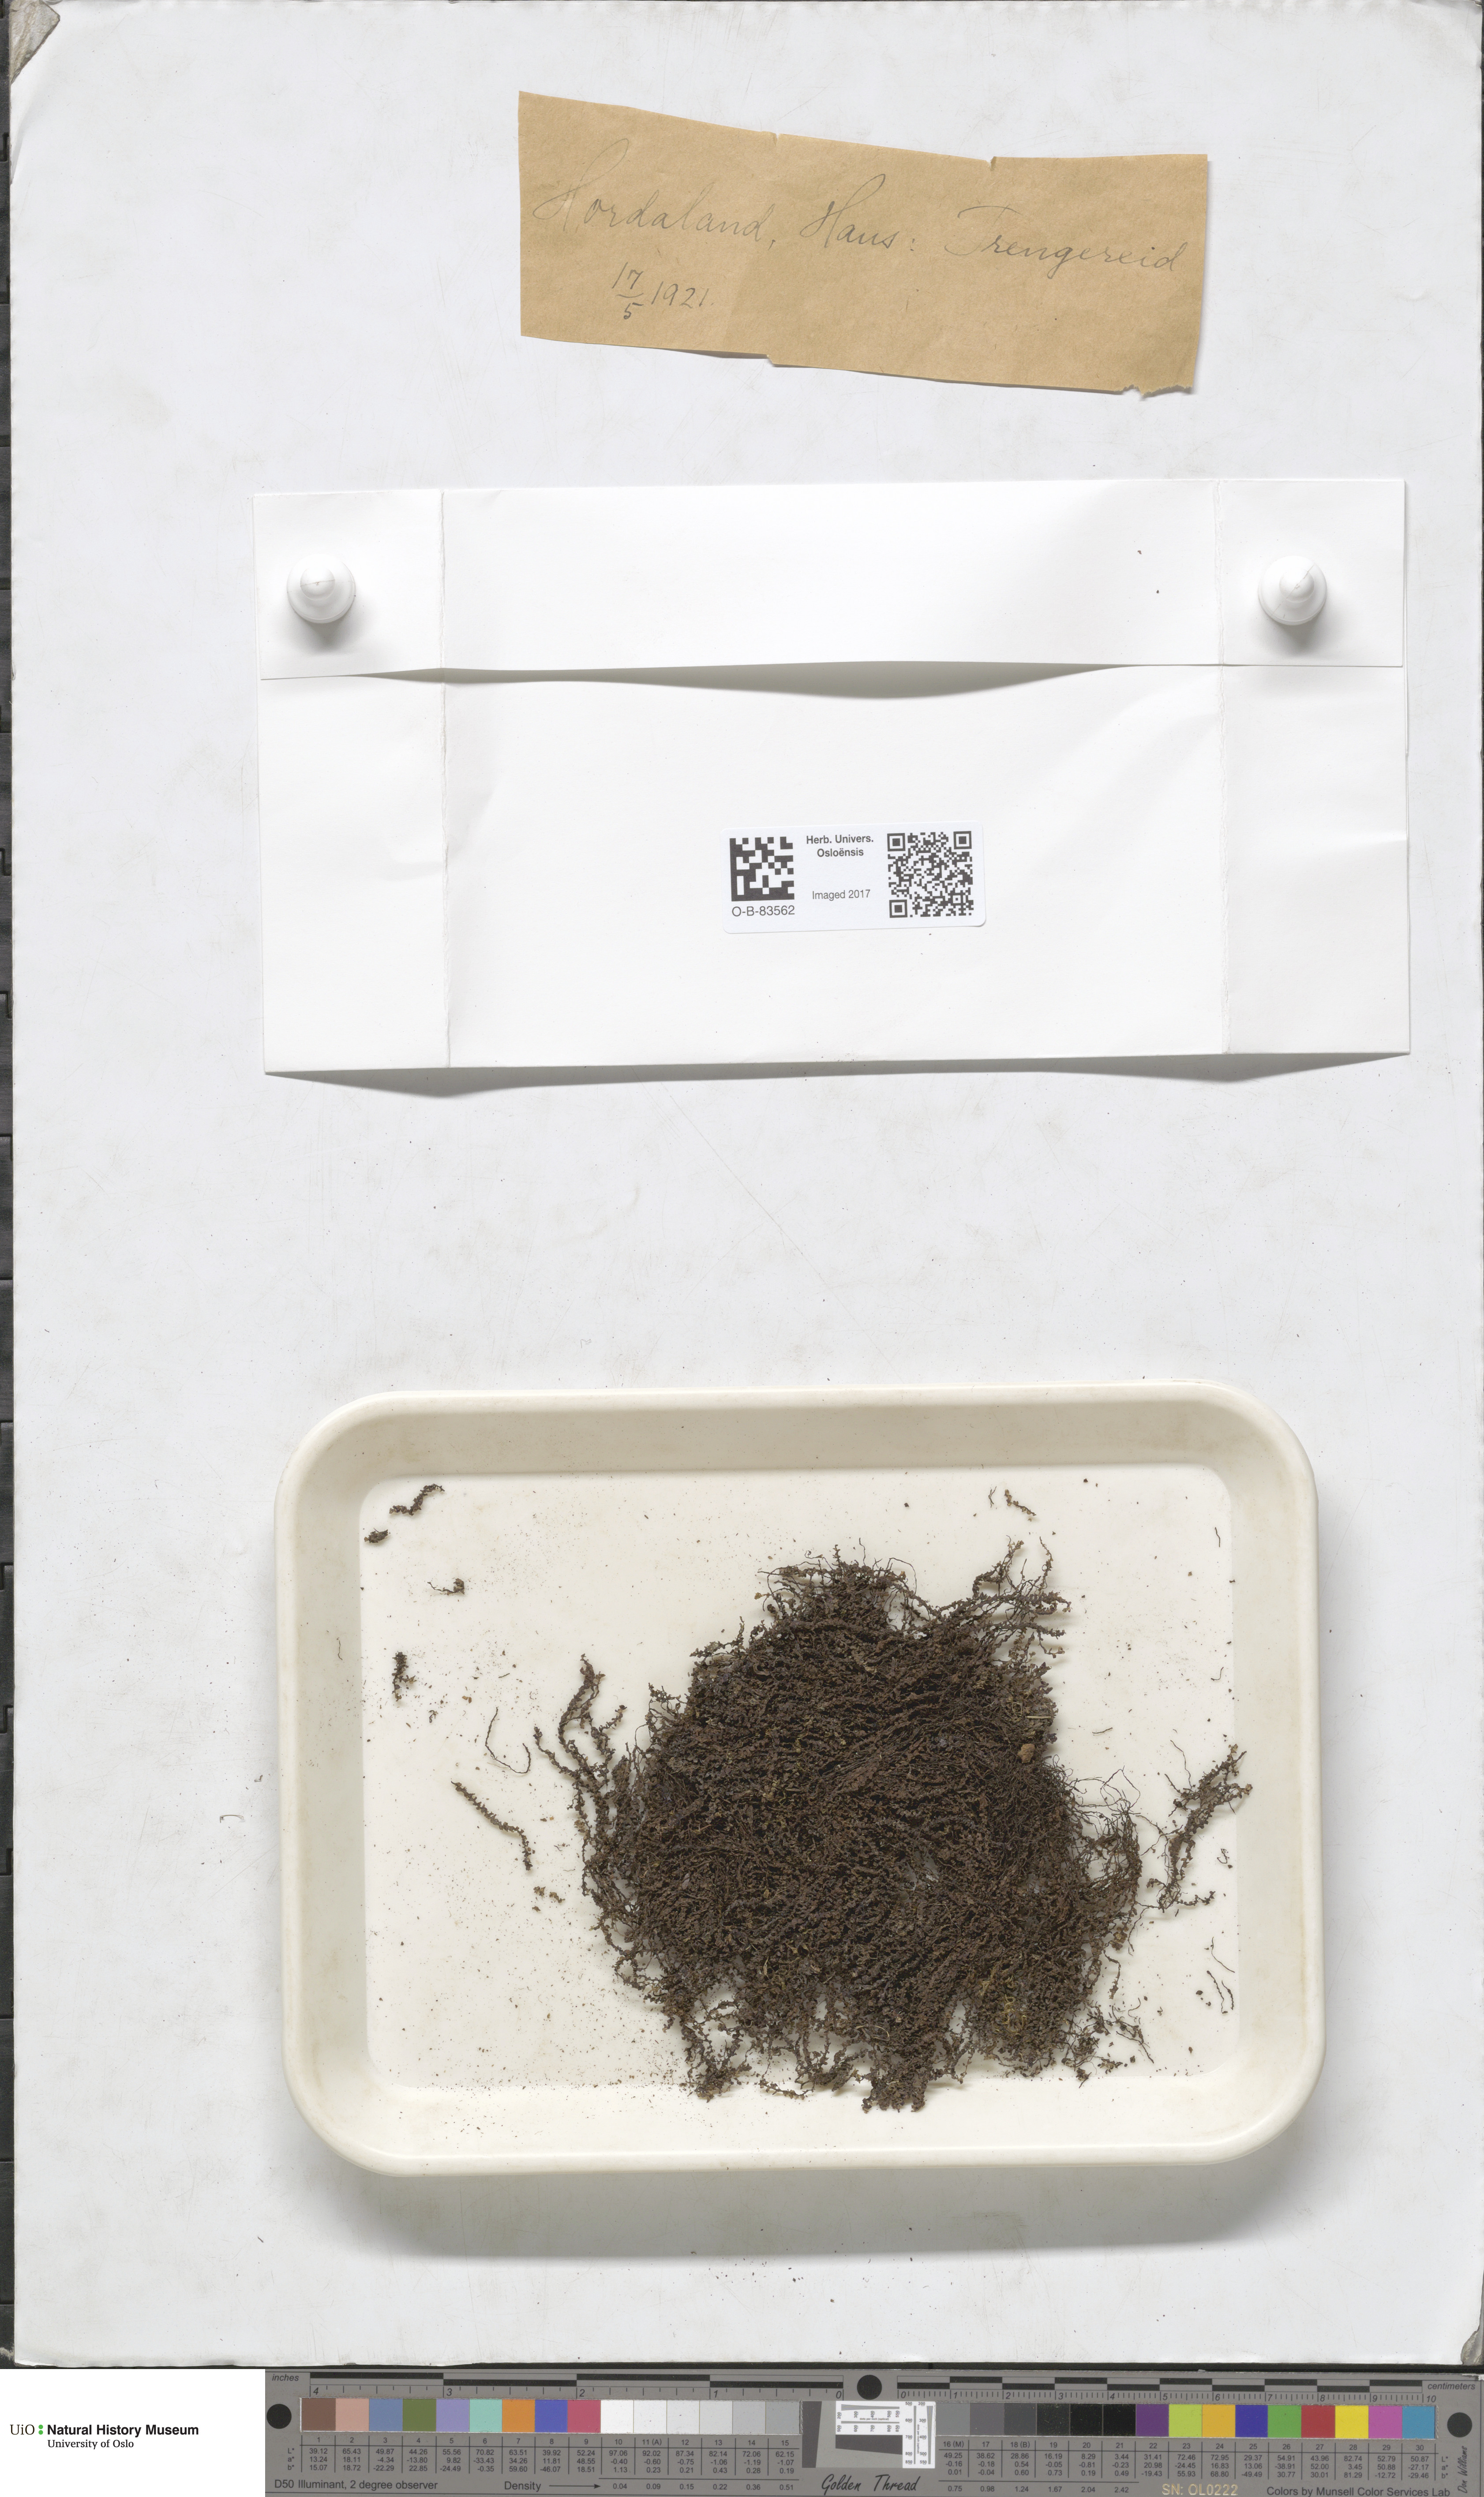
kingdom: Plantae
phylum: Marchantiophyta
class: Jungermanniopsida
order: Jungermanniales
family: Scapaniaceae
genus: Scapania
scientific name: Scapania undulata
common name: Water earwort
